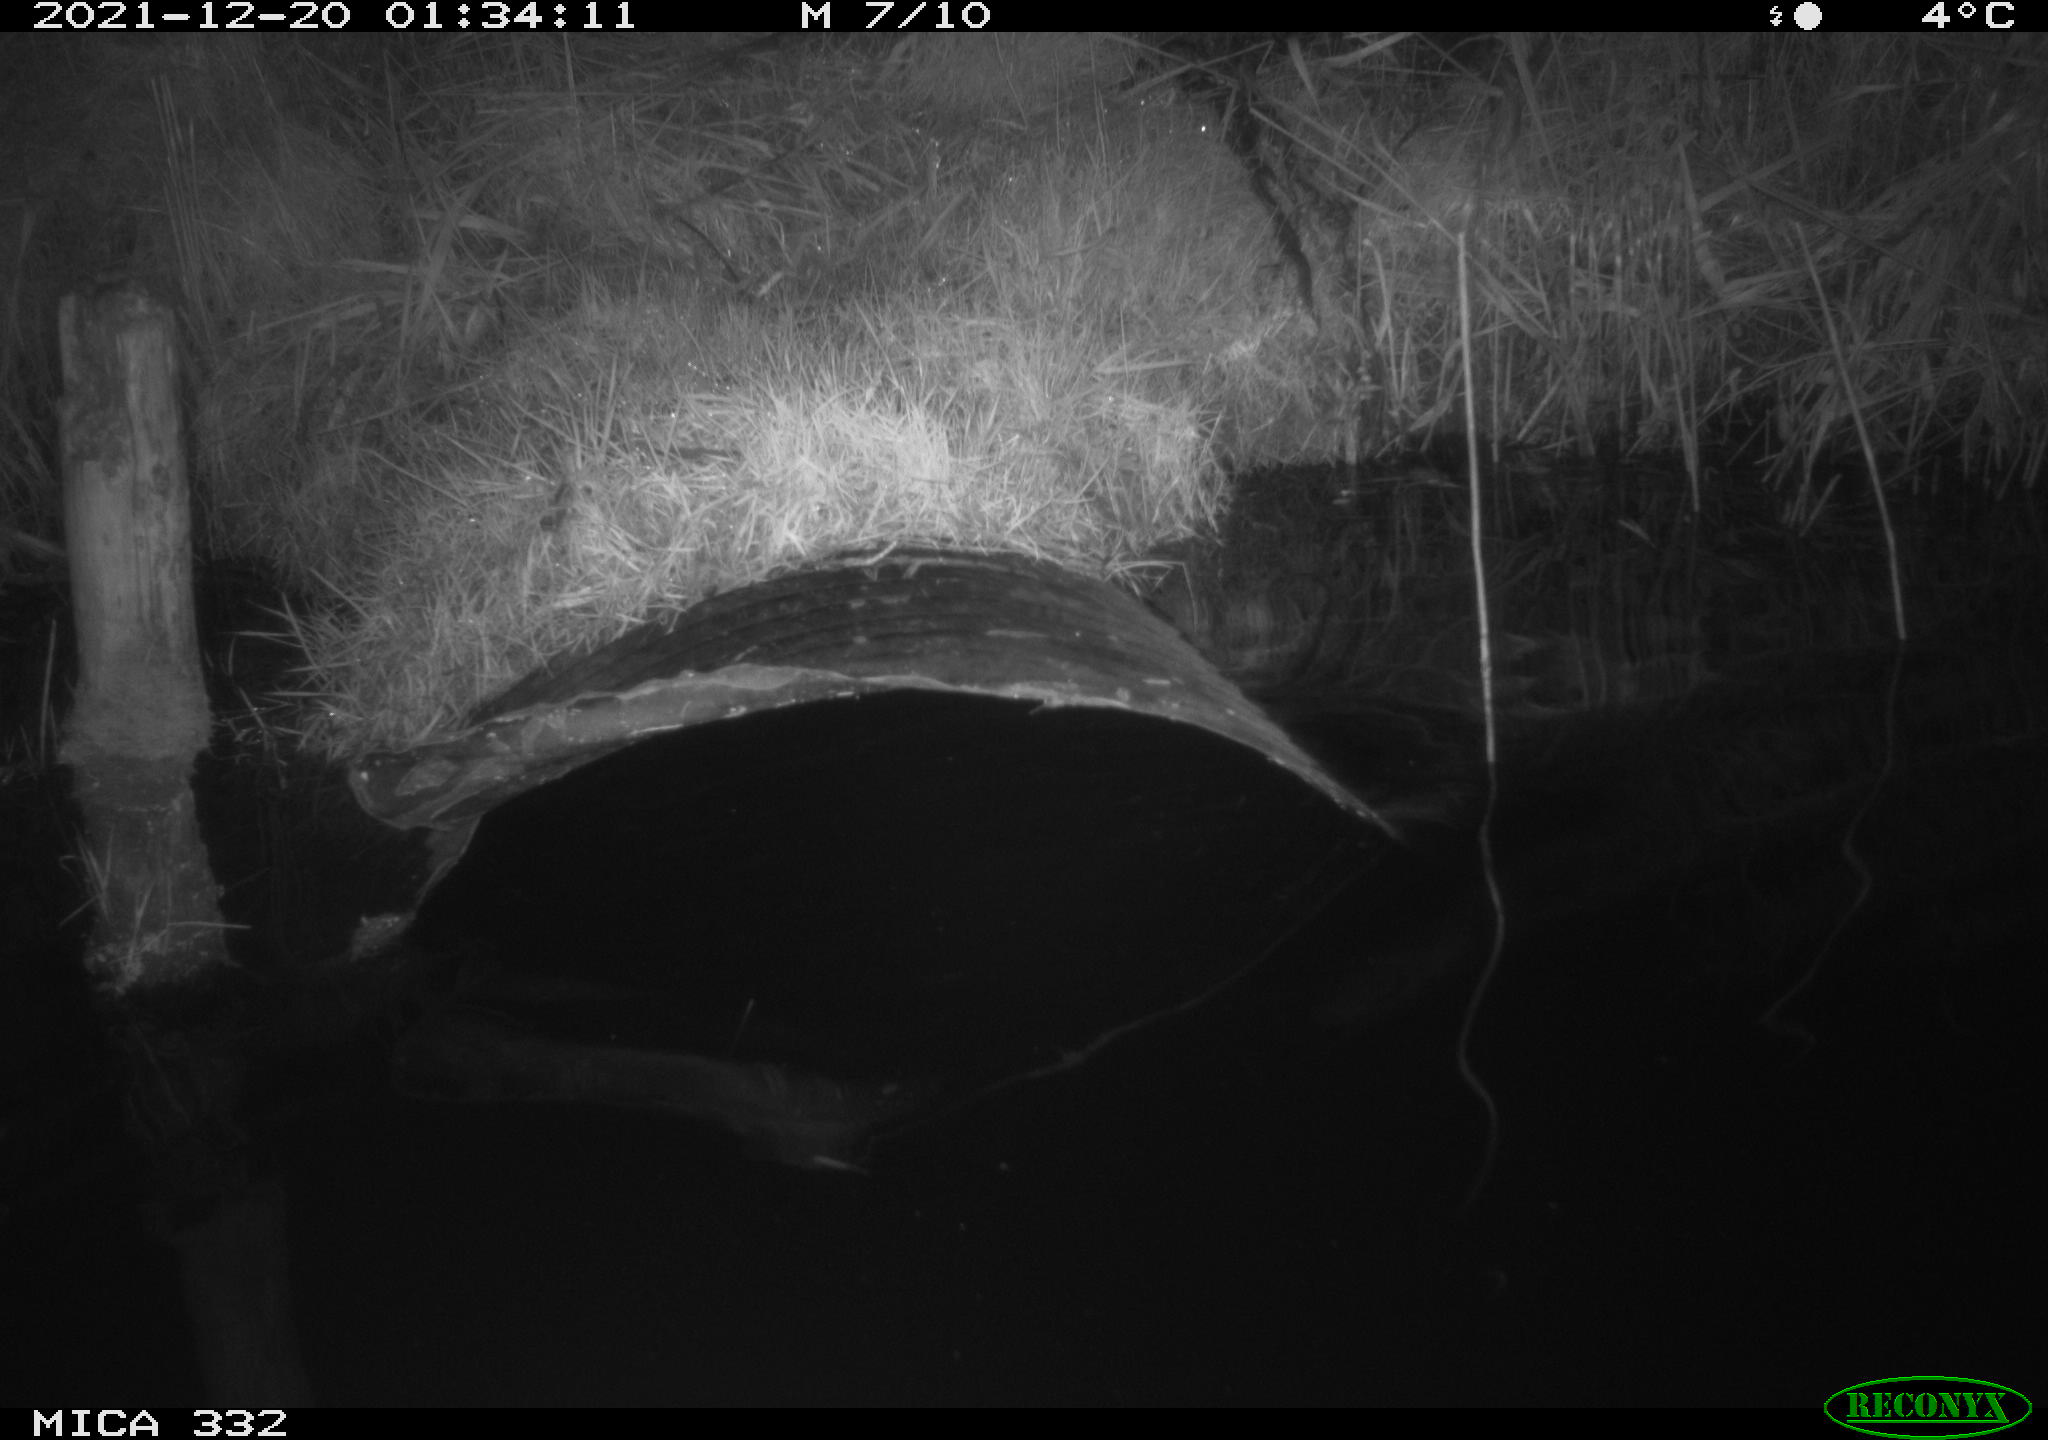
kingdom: Animalia
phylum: Chordata
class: Aves
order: Anseriformes
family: Anatidae
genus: Cygnus
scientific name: Cygnus olor
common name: Mute swan
